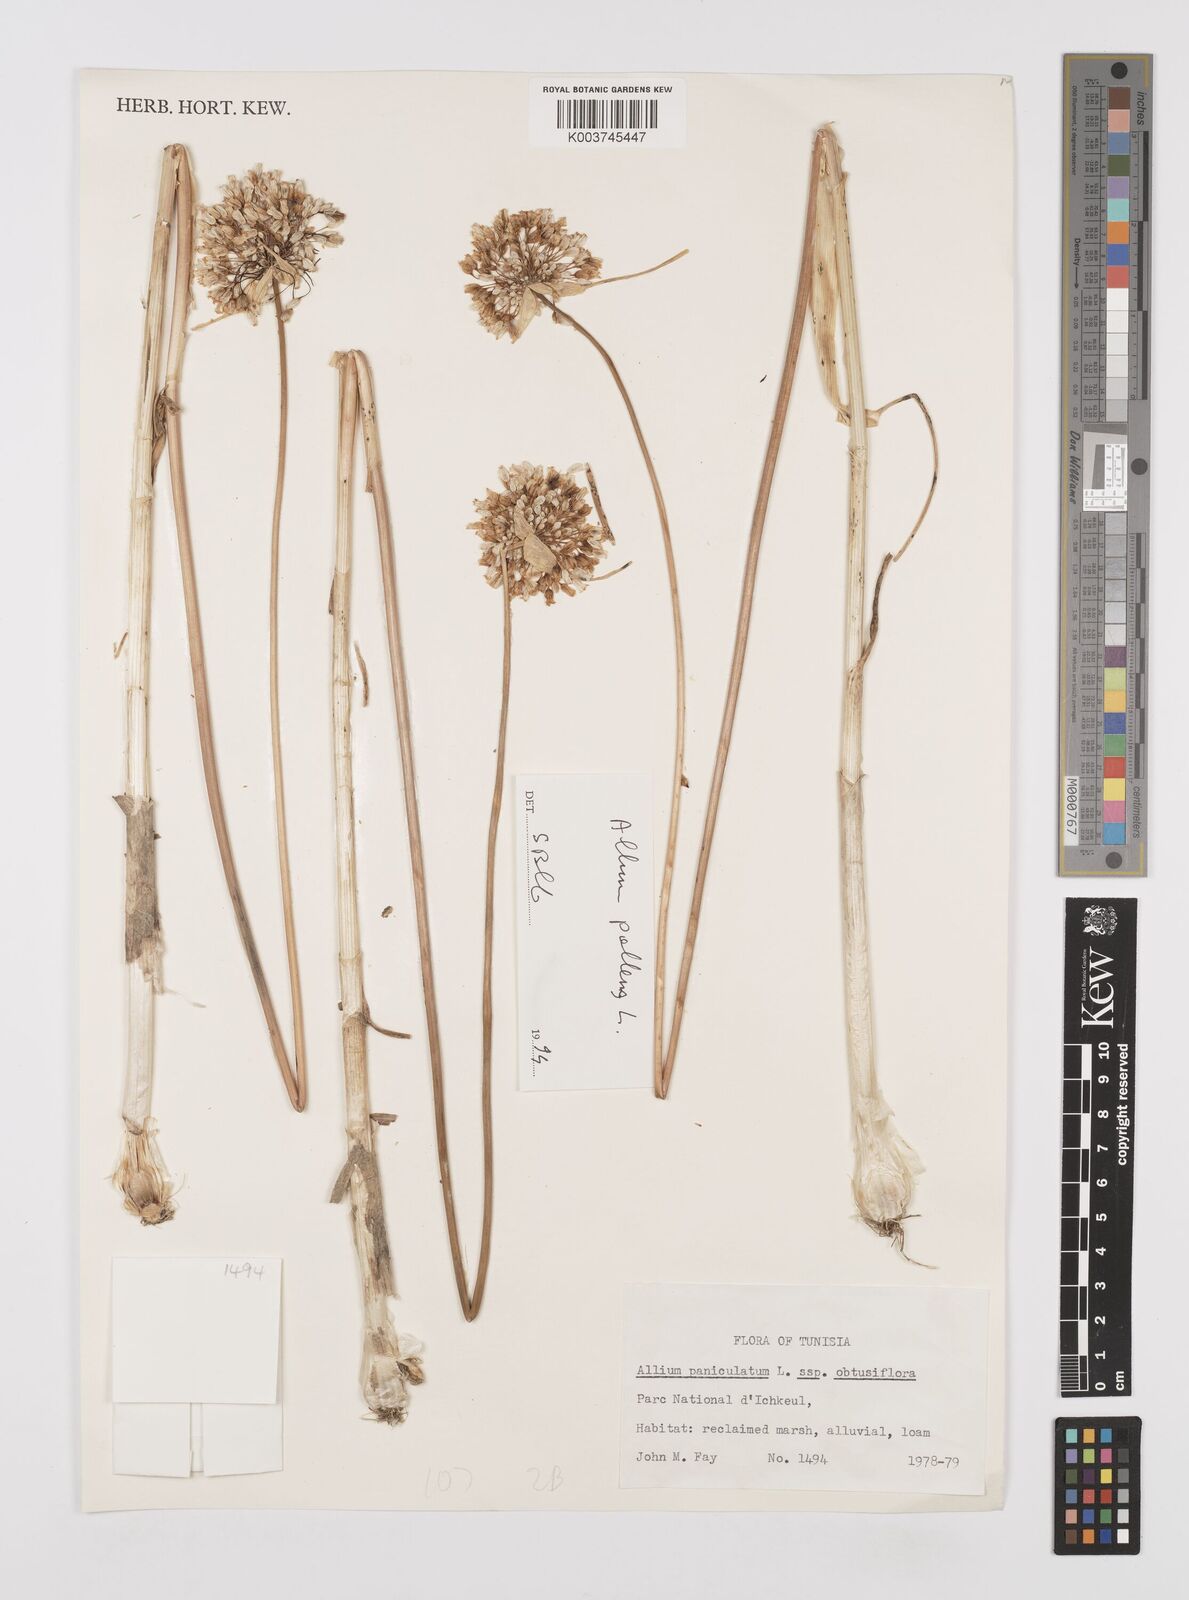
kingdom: Plantae
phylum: Tracheophyta
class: Liliopsida
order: Asparagales
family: Amaryllidaceae
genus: Allium
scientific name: Allium obtusiflorum
